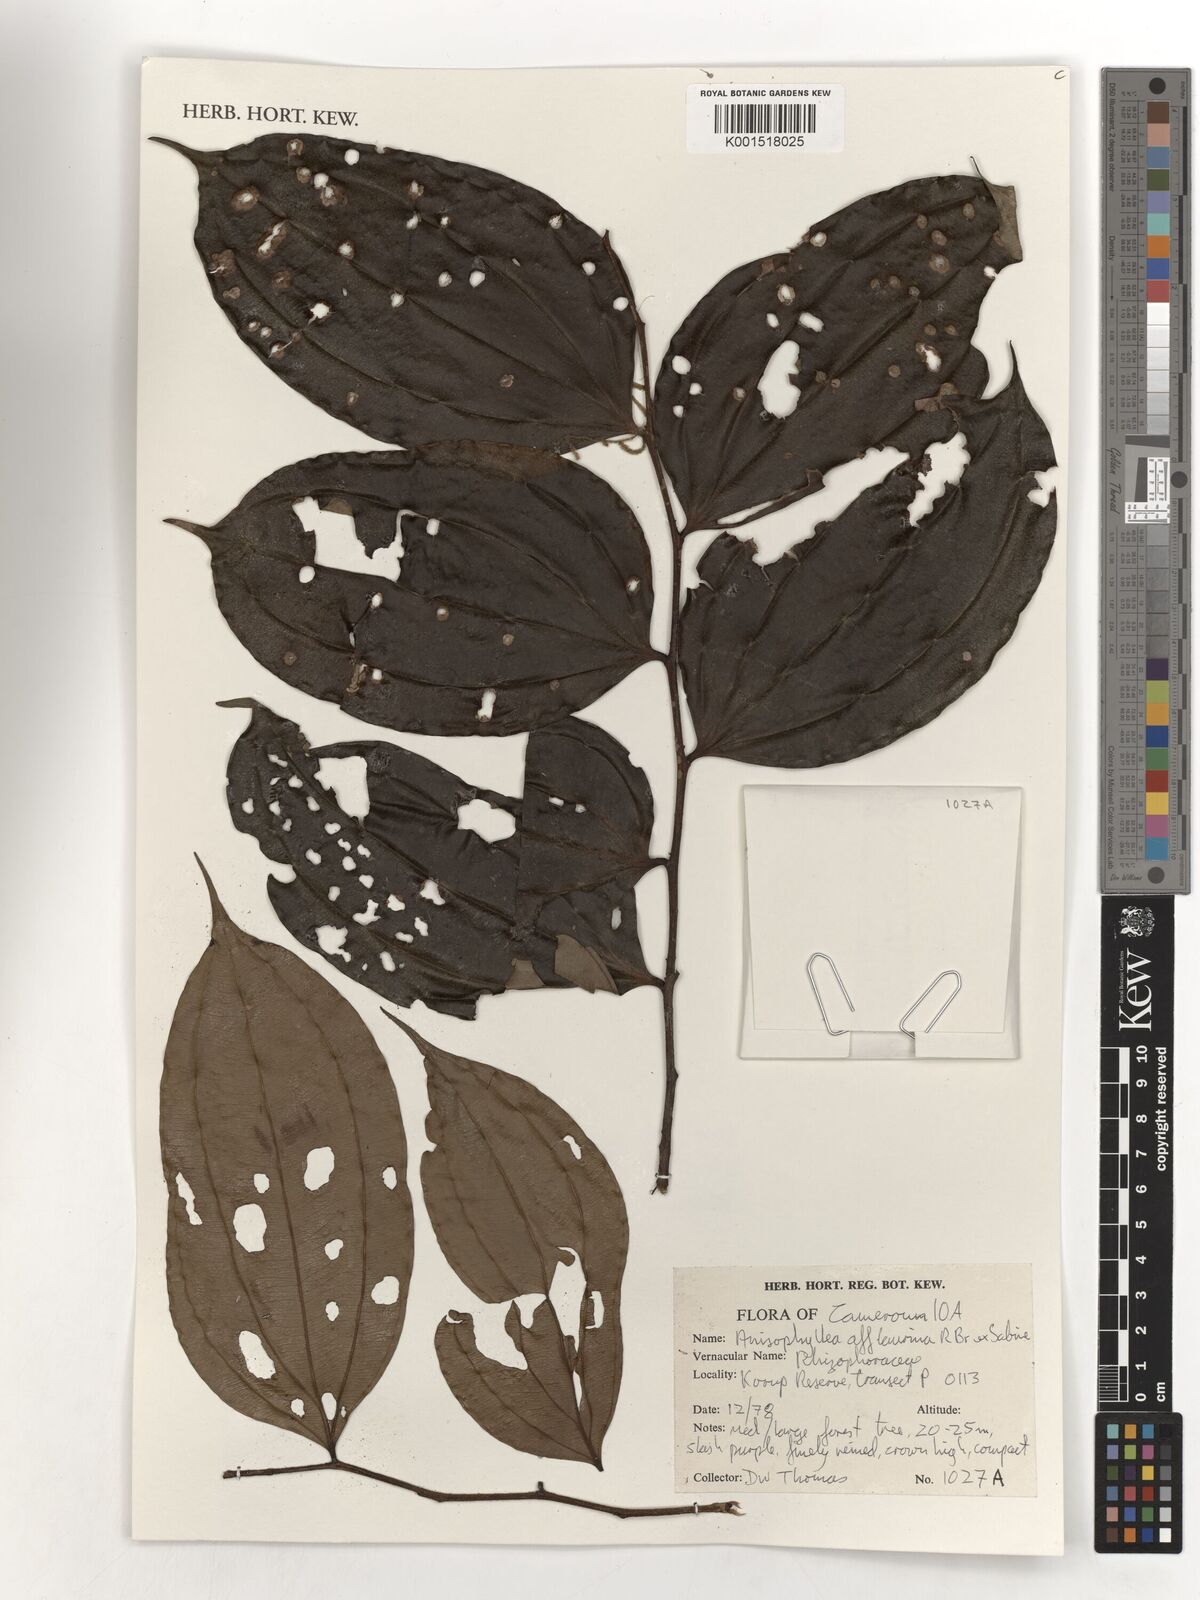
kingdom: Plantae
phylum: Tracheophyta
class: Magnoliopsida
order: Cucurbitales
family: Anisophylleaceae
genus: Anisophyllea
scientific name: Anisophyllea laurina
